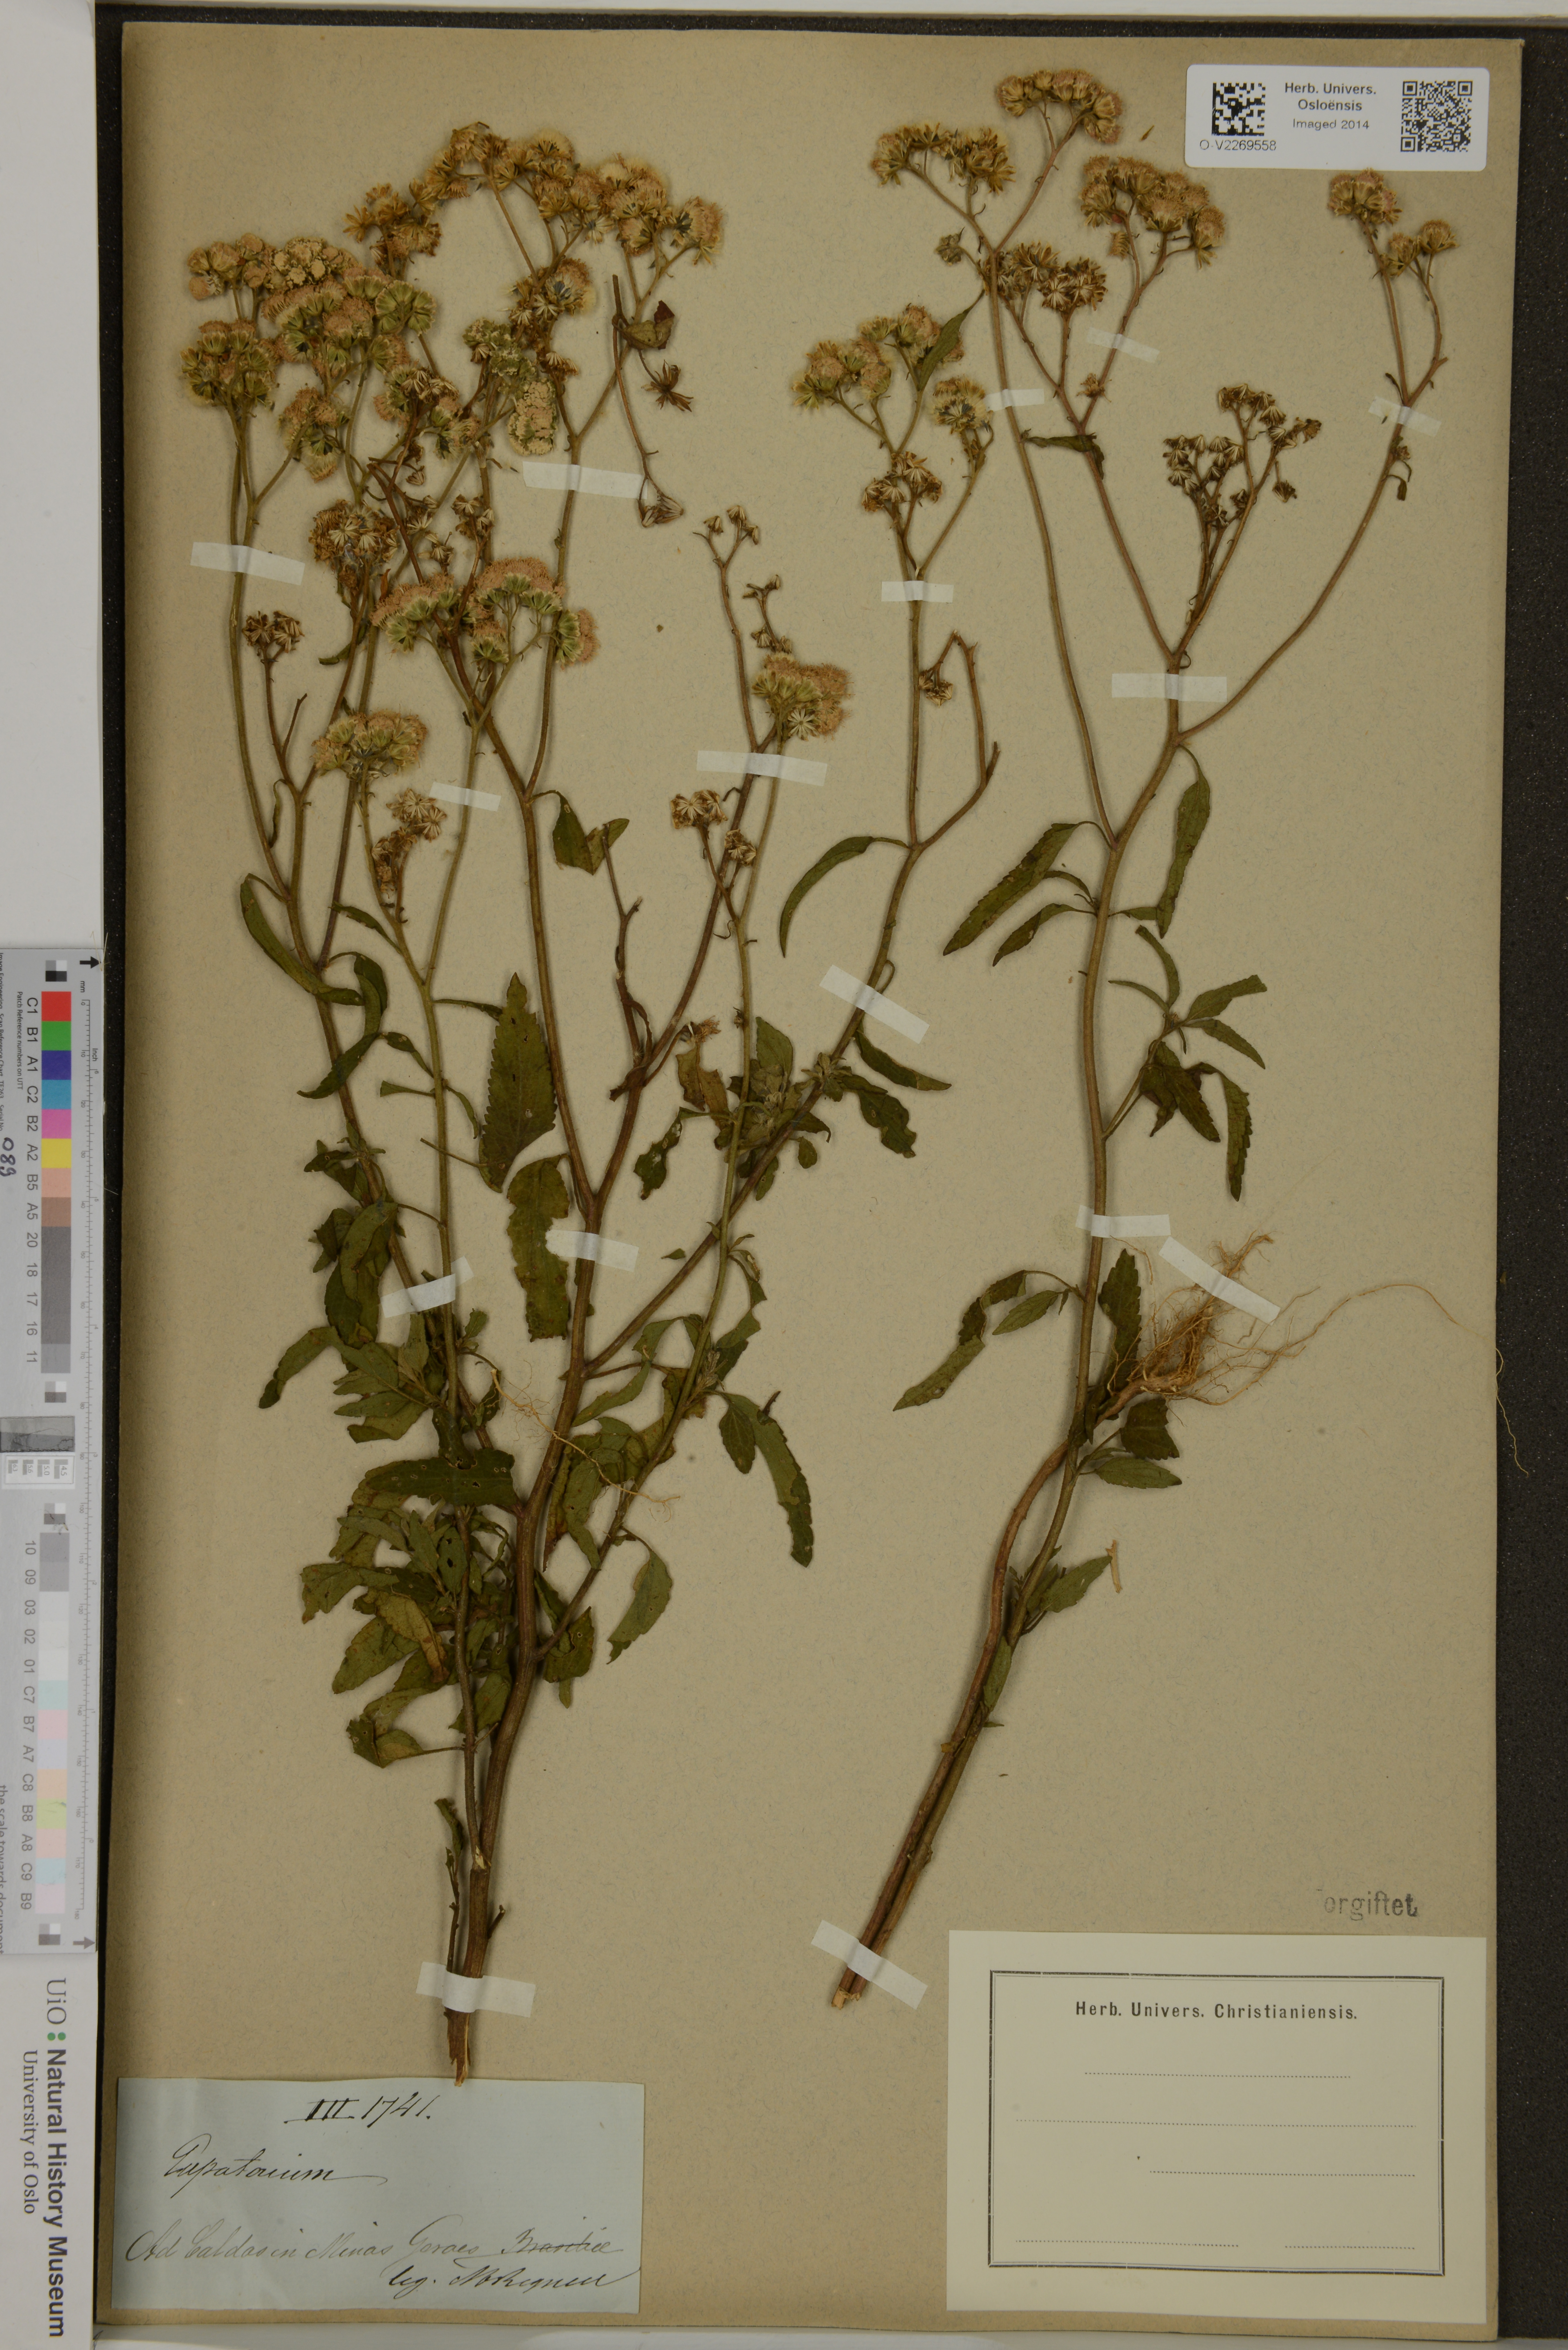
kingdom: Plantae
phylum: Tracheophyta
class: Magnoliopsida
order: Asterales
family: Asteraceae
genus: Eupatorium
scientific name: Eupatorium
